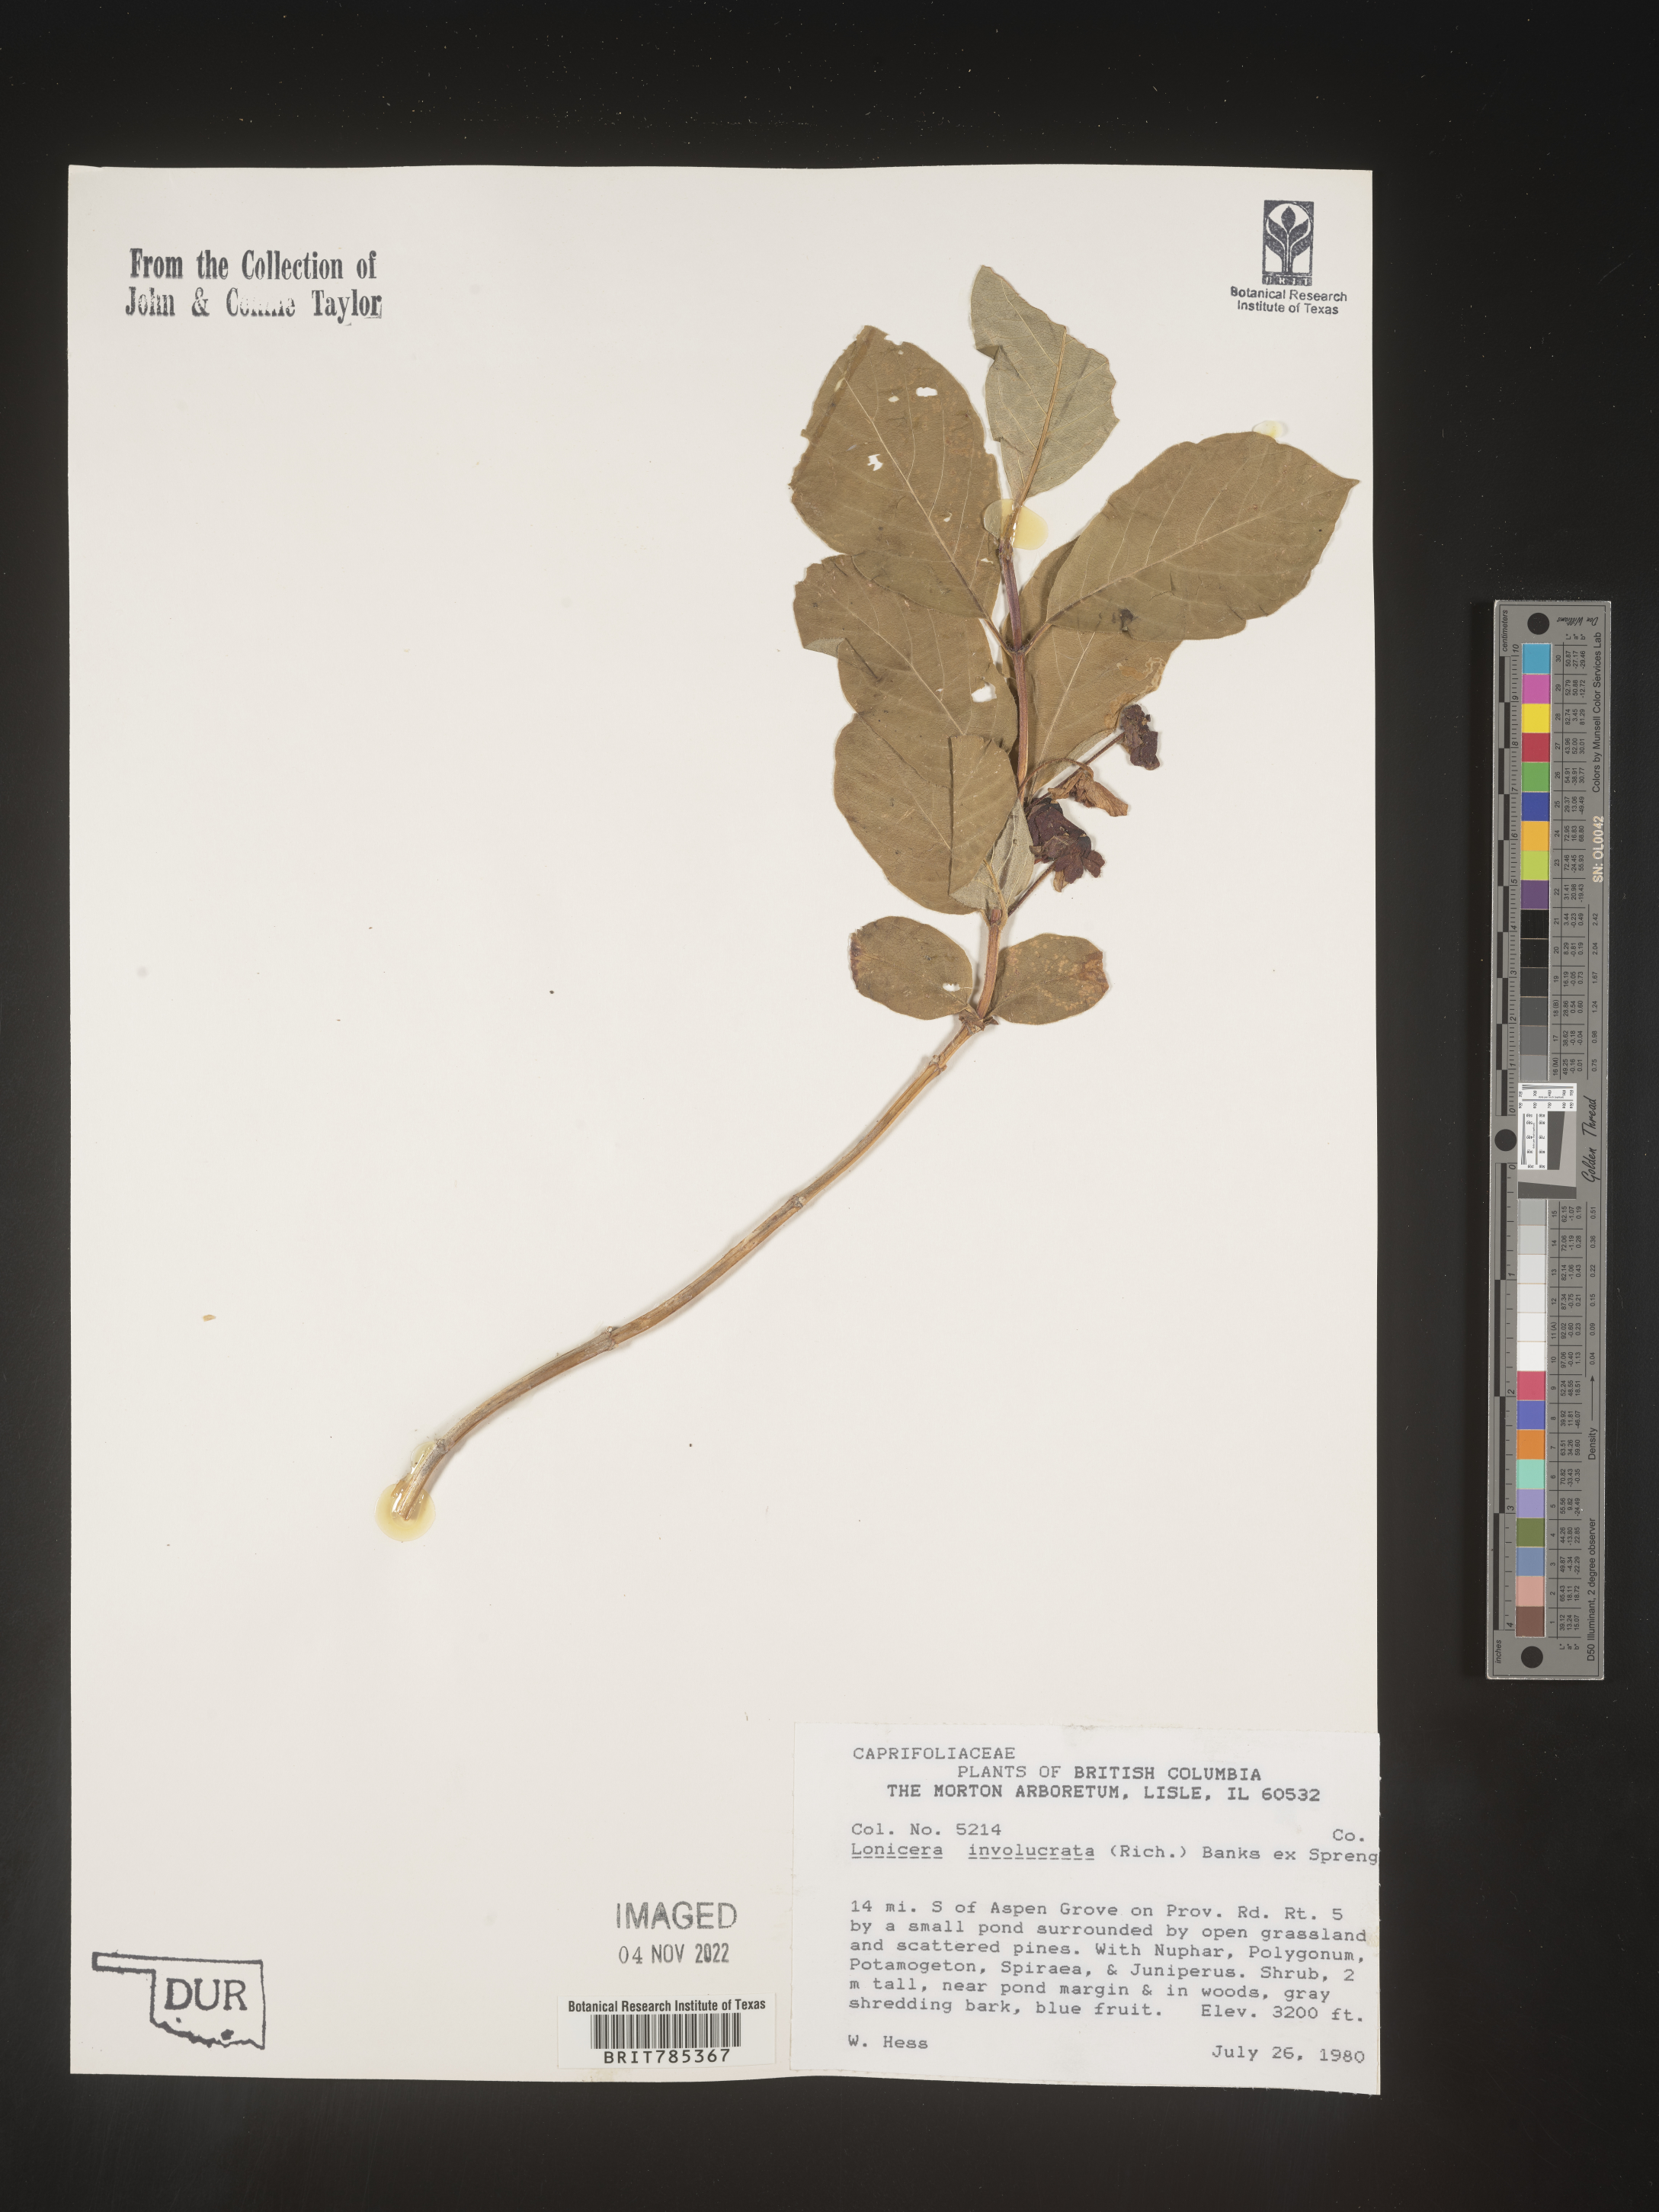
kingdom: Plantae
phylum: Tracheophyta
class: Magnoliopsida
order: Dipsacales
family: Caprifoliaceae
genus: Lonicera
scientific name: Lonicera involucrata
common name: Californian honeysuckle
